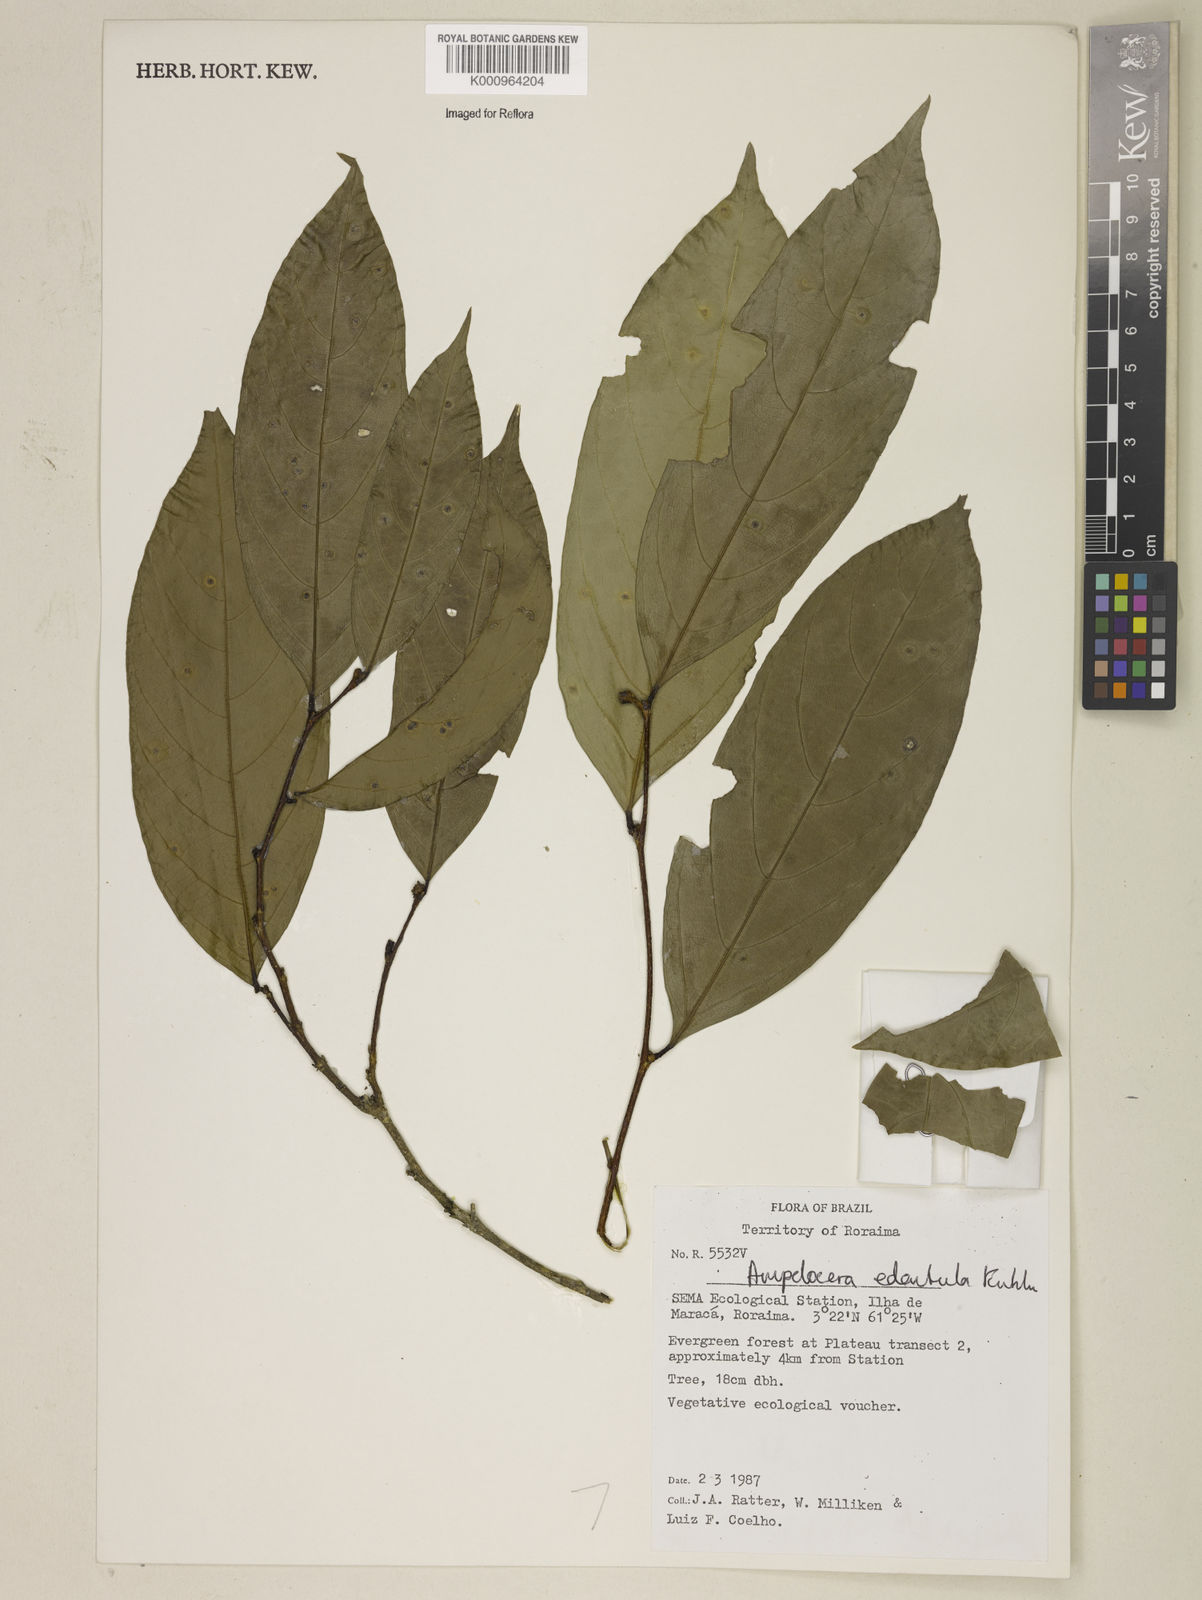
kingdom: Plantae
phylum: Tracheophyta
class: Magnoliopsida
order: Rosales
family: Cannabaceae
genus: Ampelocera
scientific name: Ampelocera edentula
